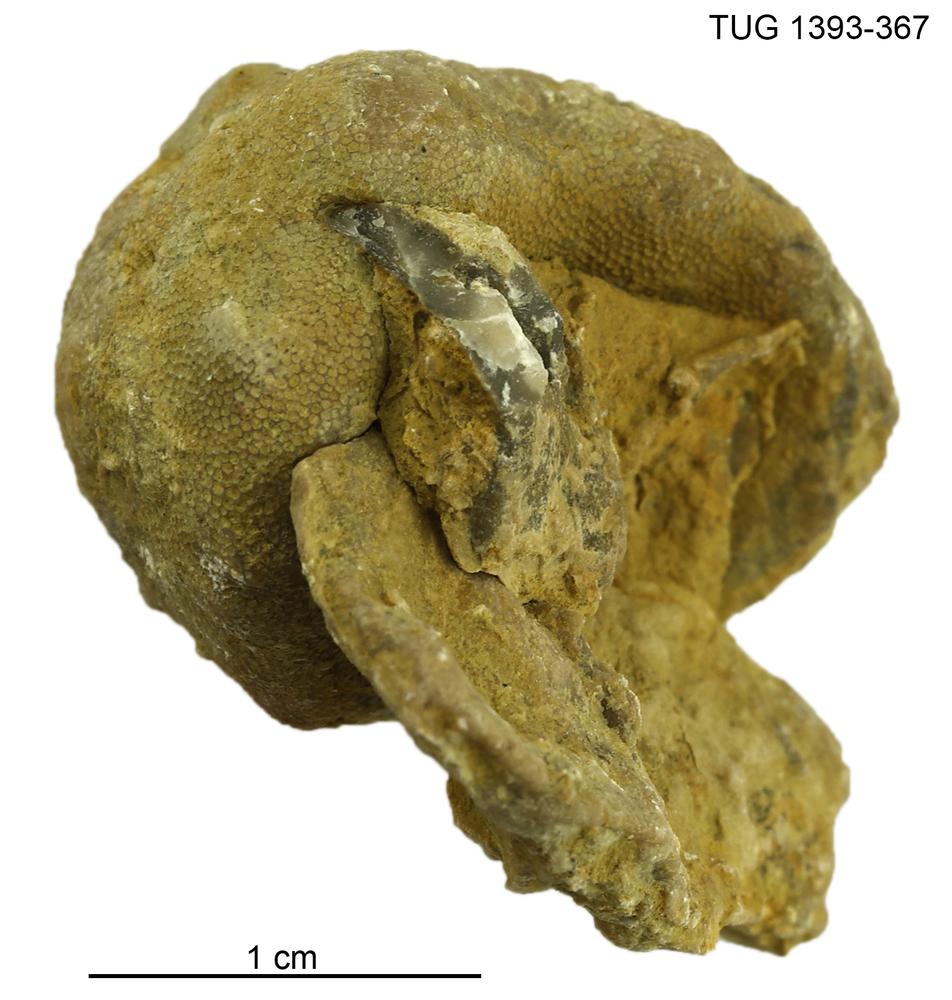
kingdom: Animalia
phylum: Bryozoa
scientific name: Bryozoa
